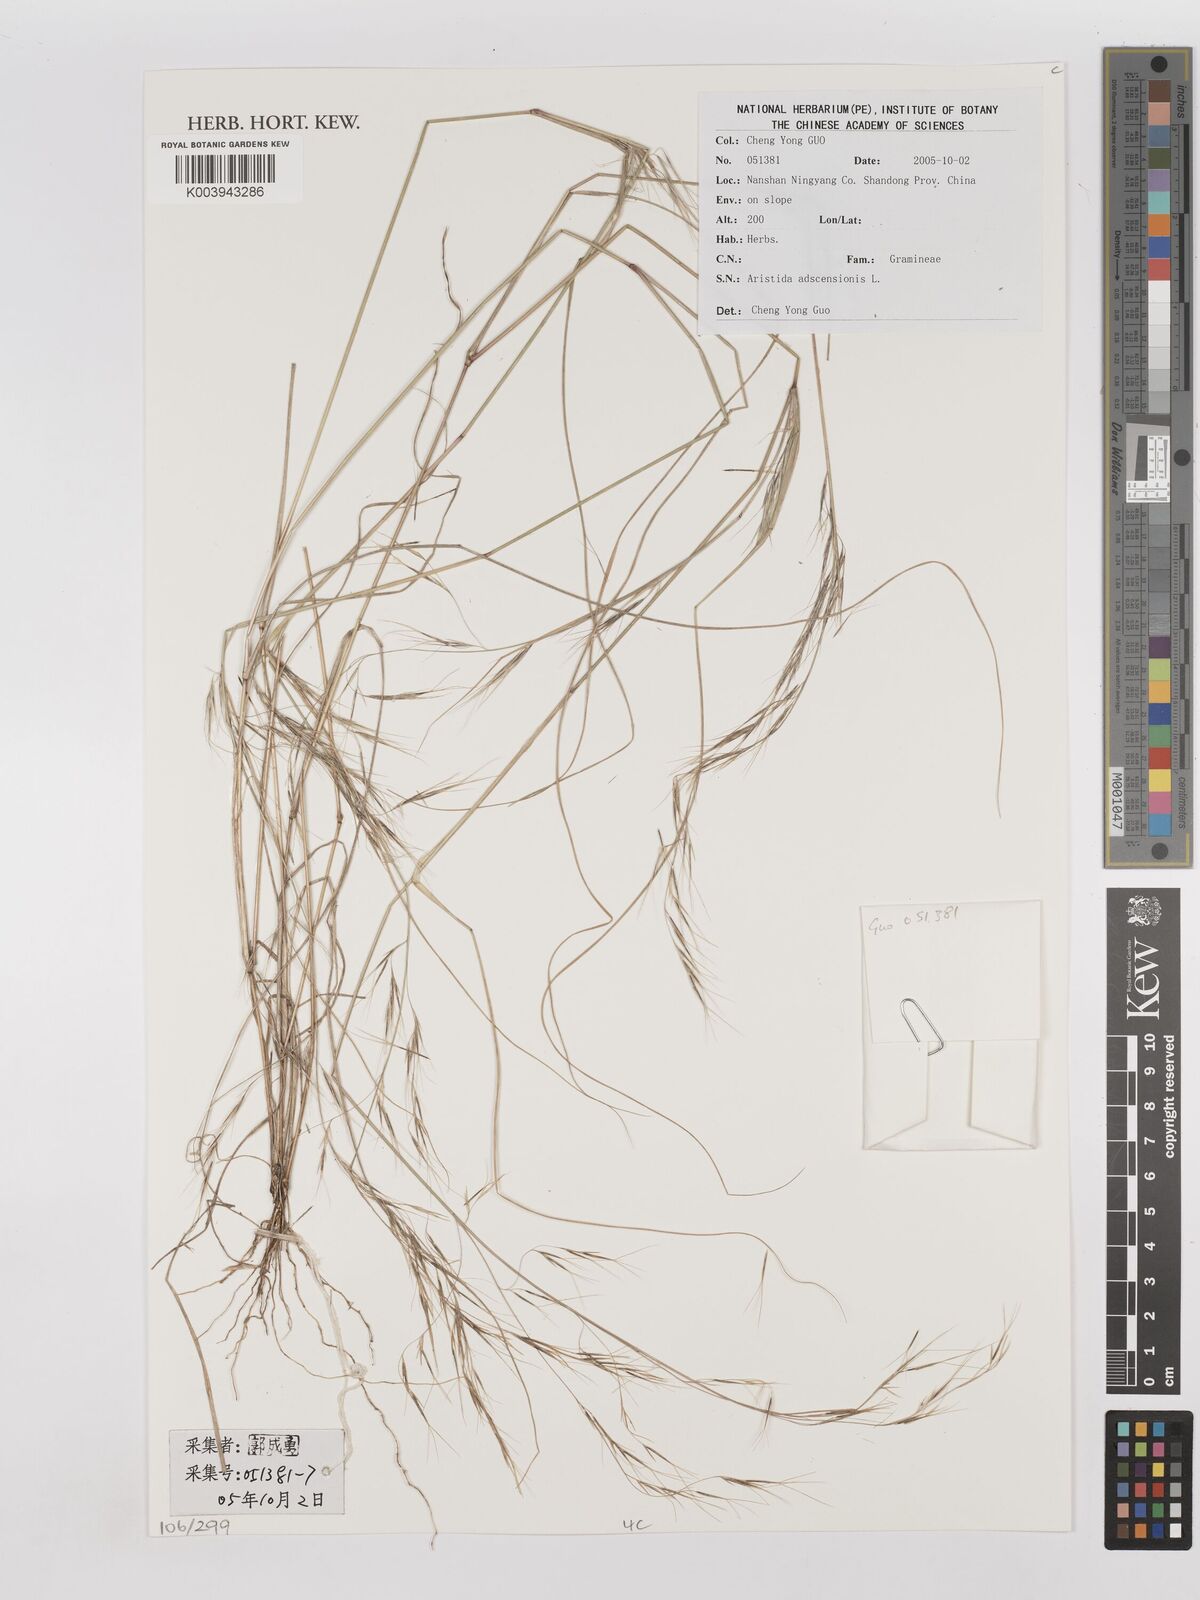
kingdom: Plantae
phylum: Tracheophyta
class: Liliopsida
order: Poales
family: Poaceae
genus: Aristida
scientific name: Aristida adscensionis
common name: Sixweeks threeawn
